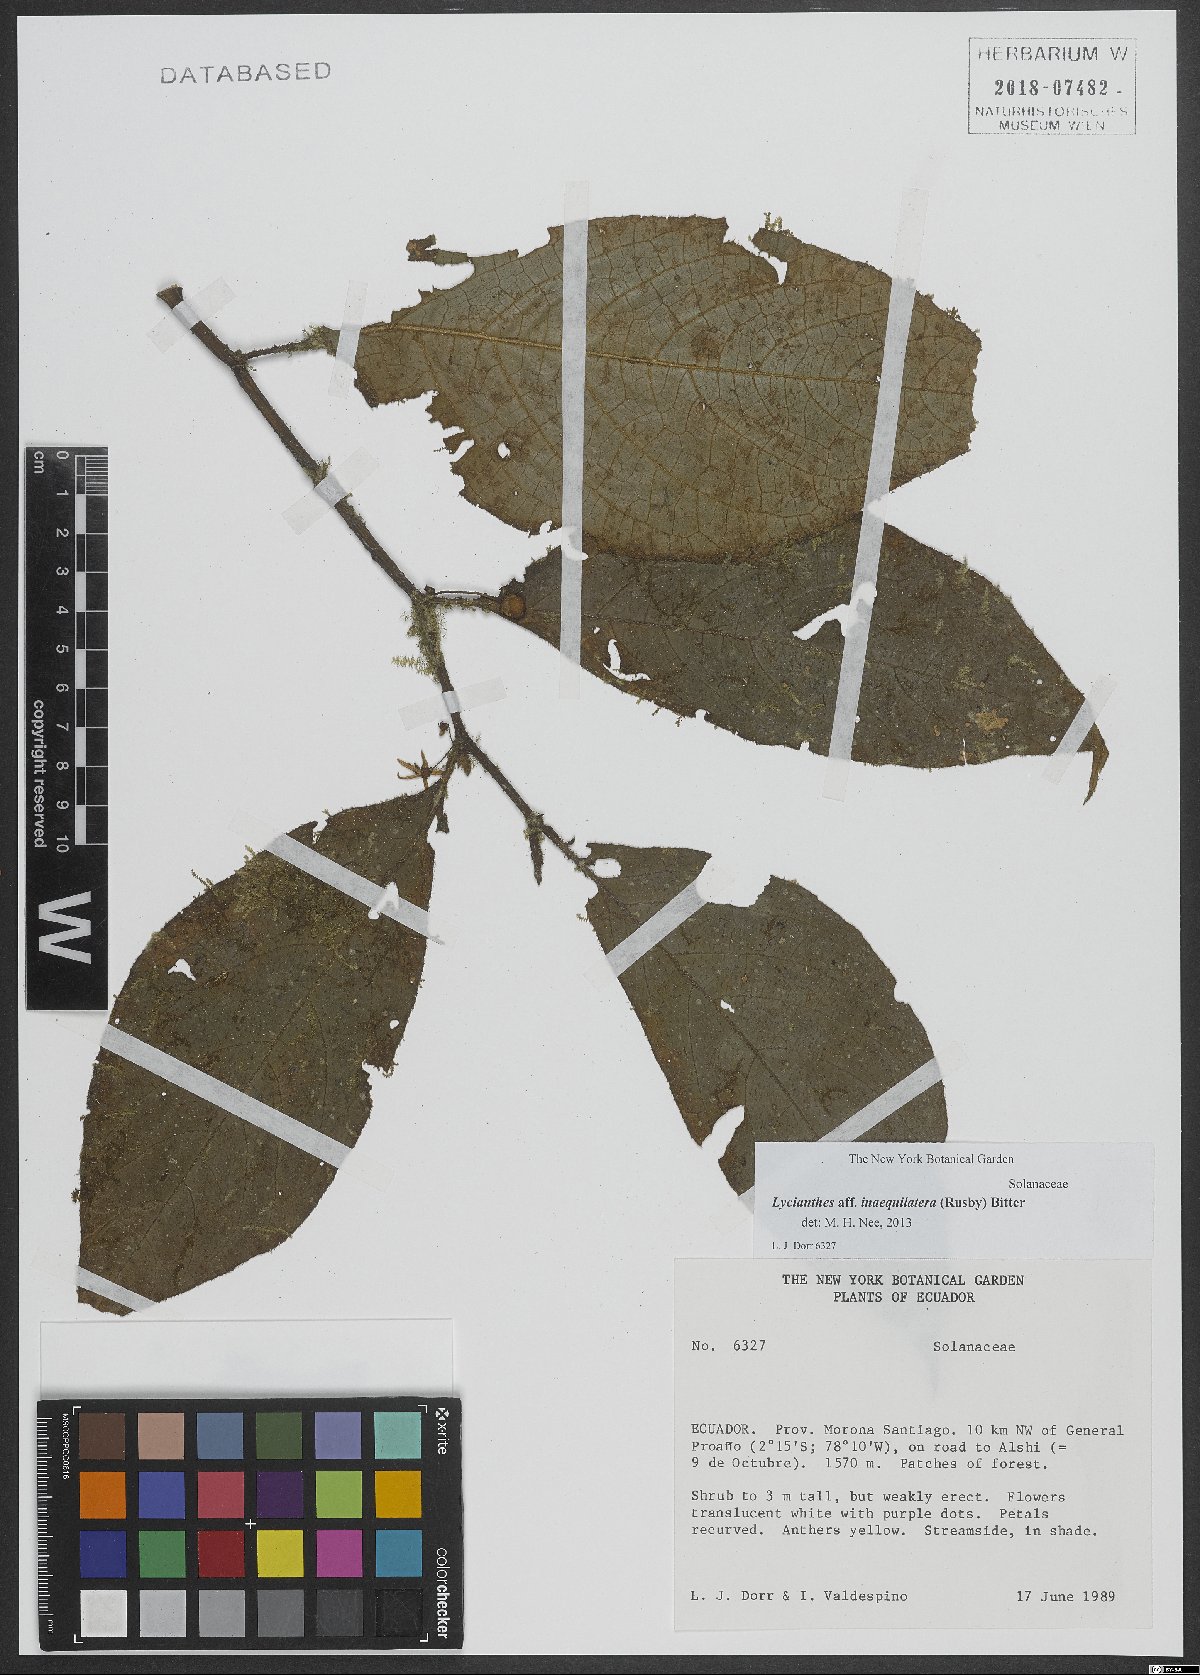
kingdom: Plantae
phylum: Tracheophyta
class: Magnoliopsida
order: Solanales
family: Solanaceae
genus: Lycianthes
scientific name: Lycianthes inaequilatera
